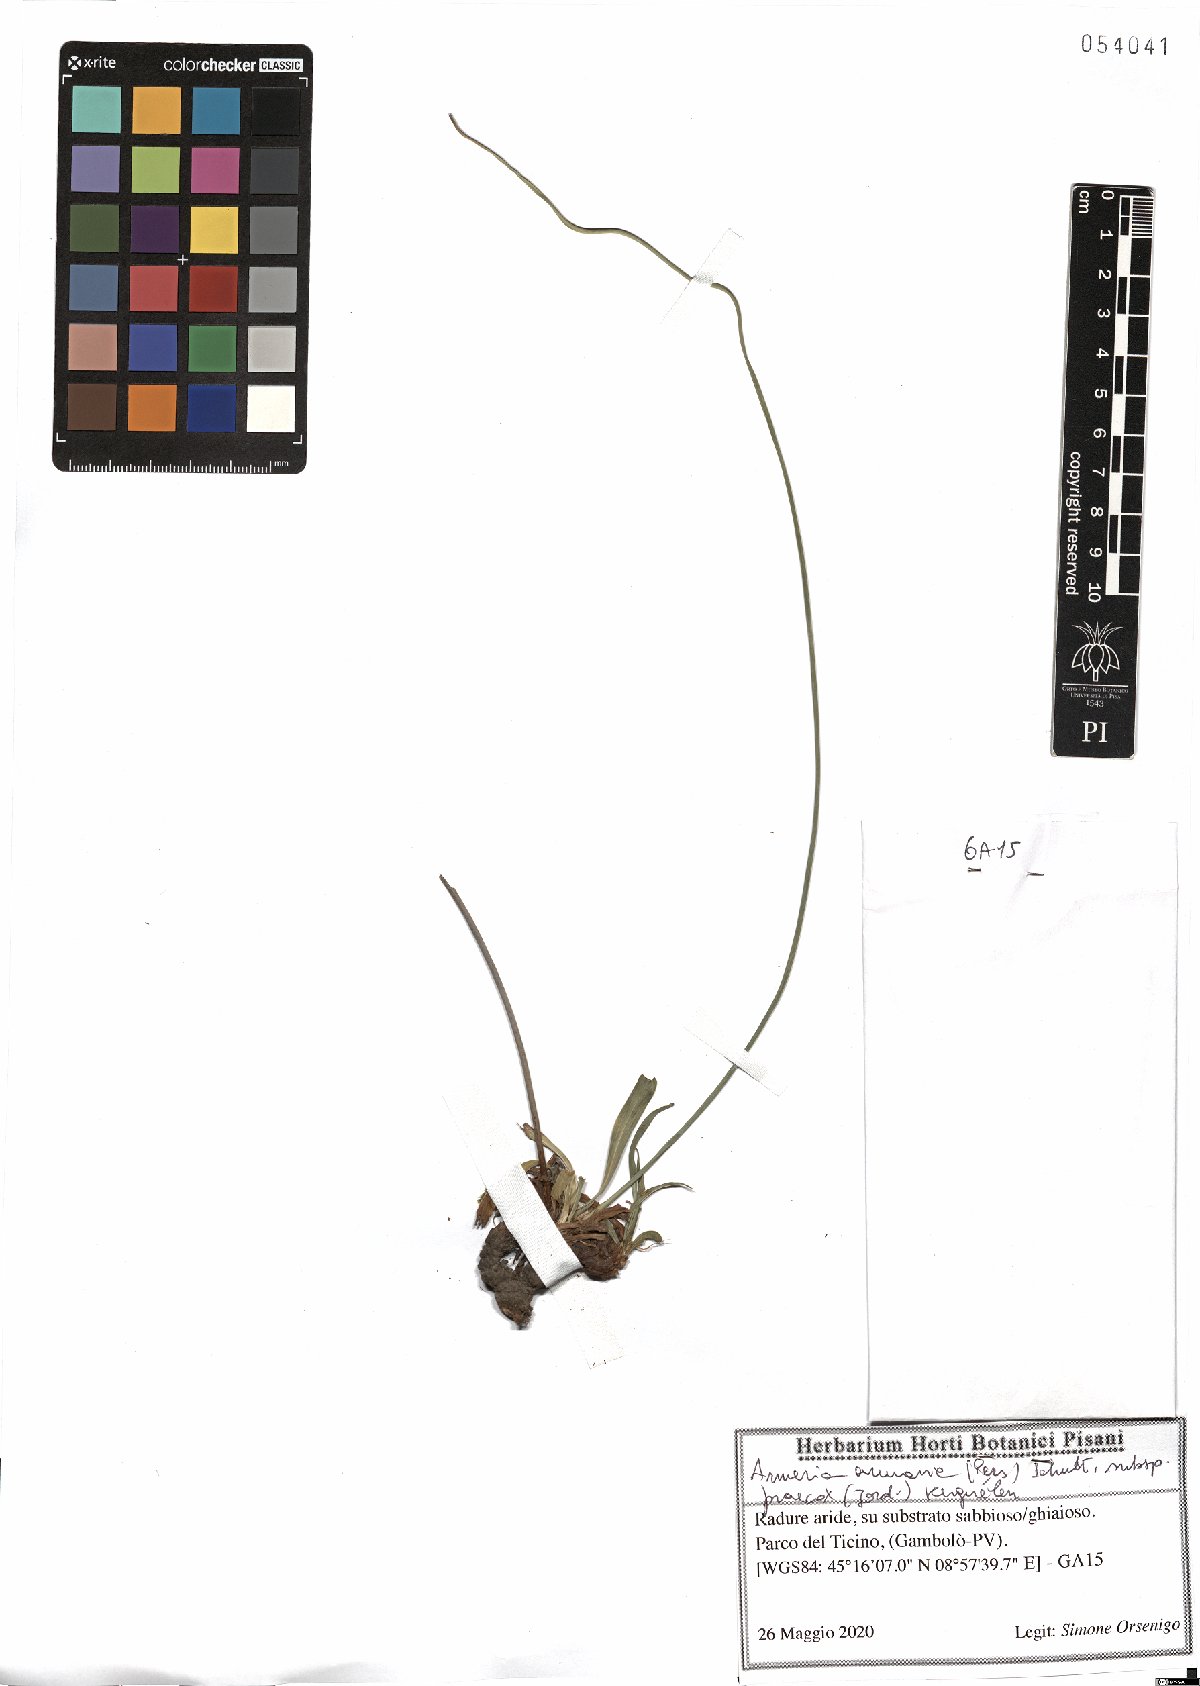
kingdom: Plantae
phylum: Tracheophyta
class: Magnoliopsida
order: Caryophyllales
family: Plumbaginaceae
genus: Armeria
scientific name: Armeria arenaria
